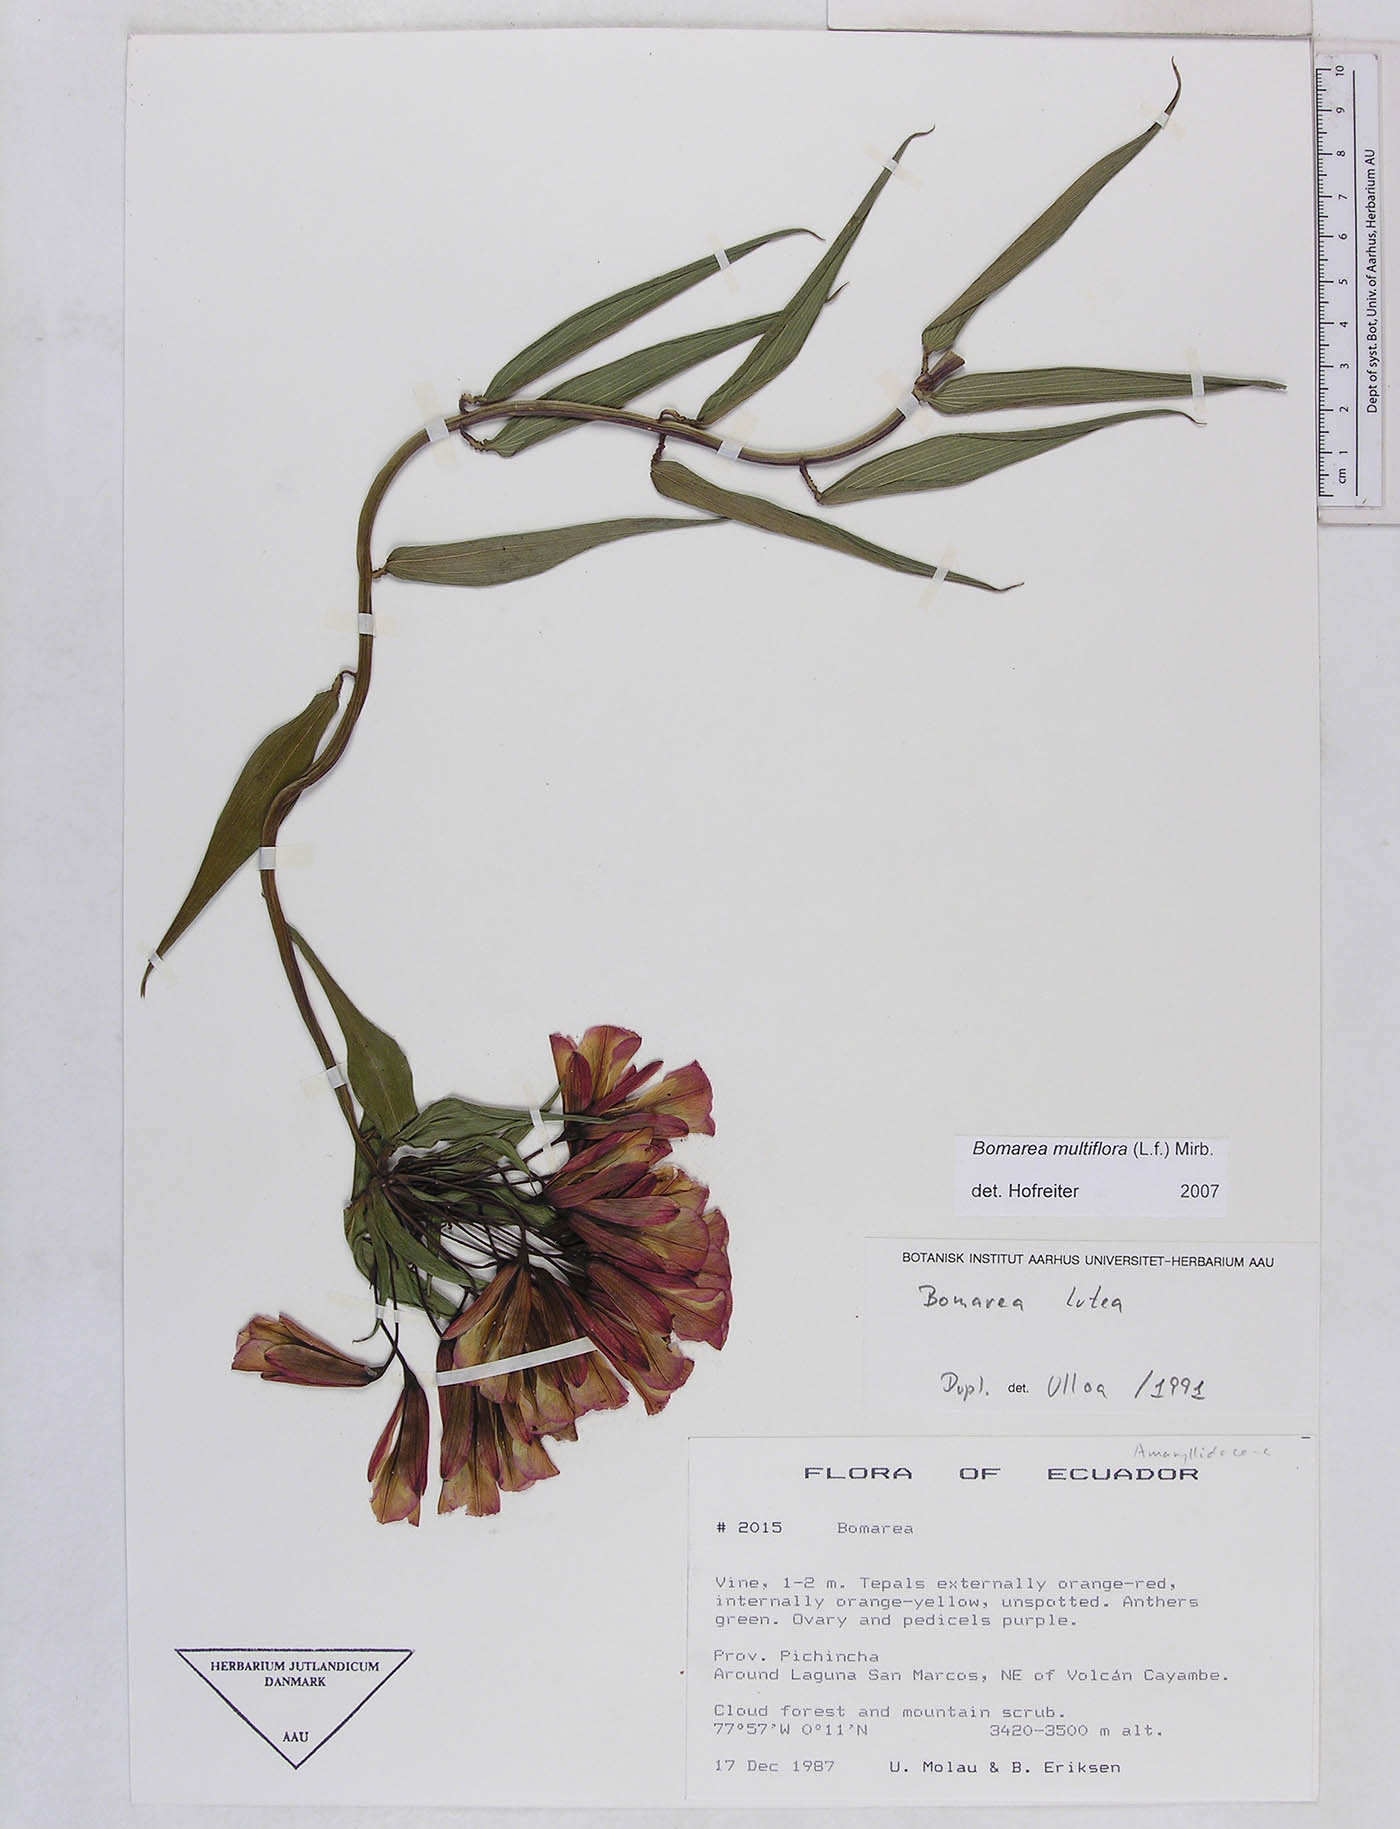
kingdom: Plantae
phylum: Tracheophyta
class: Liliopsida
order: Liliales
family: Alstroemeriaceae
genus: Bomarea
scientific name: Bomarea multiflora
